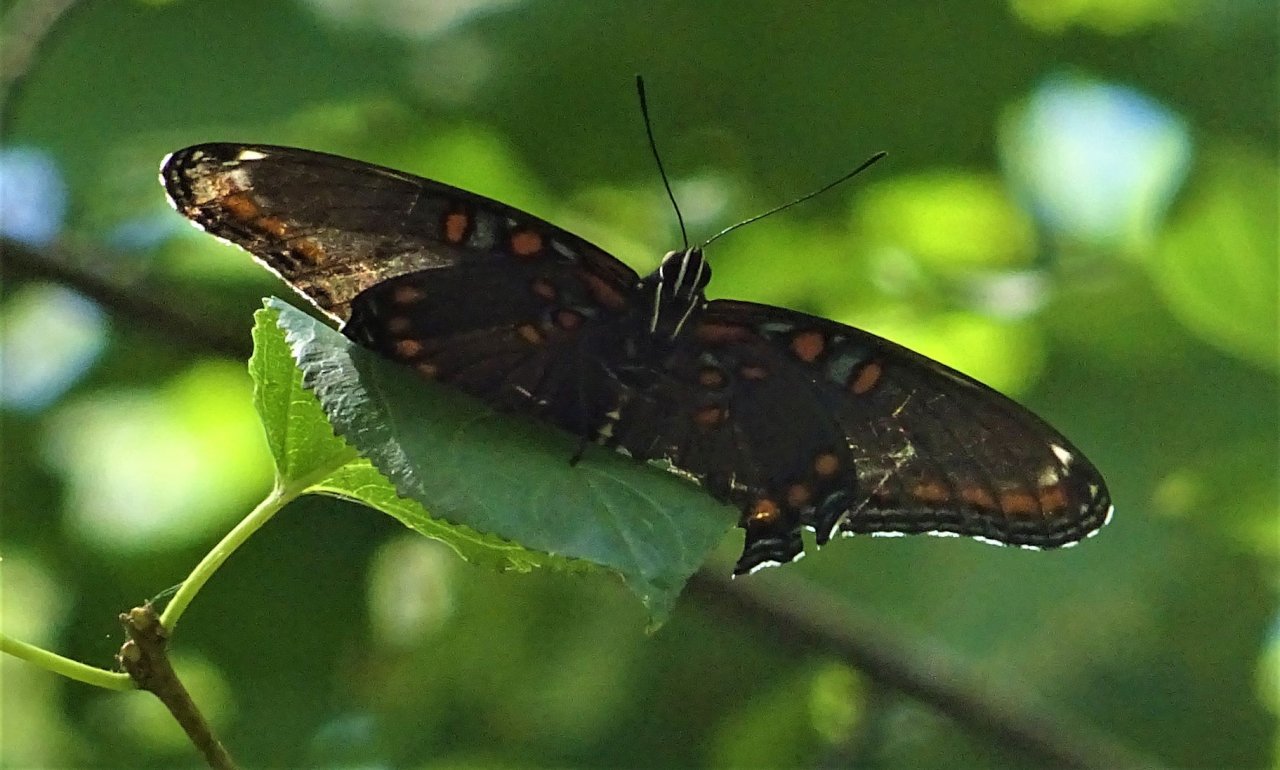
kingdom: Animalia
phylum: Arthropoda
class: Insecta
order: Lepidoptera
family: Nymphalidae
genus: Limenitis
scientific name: Limenitis astyanax
